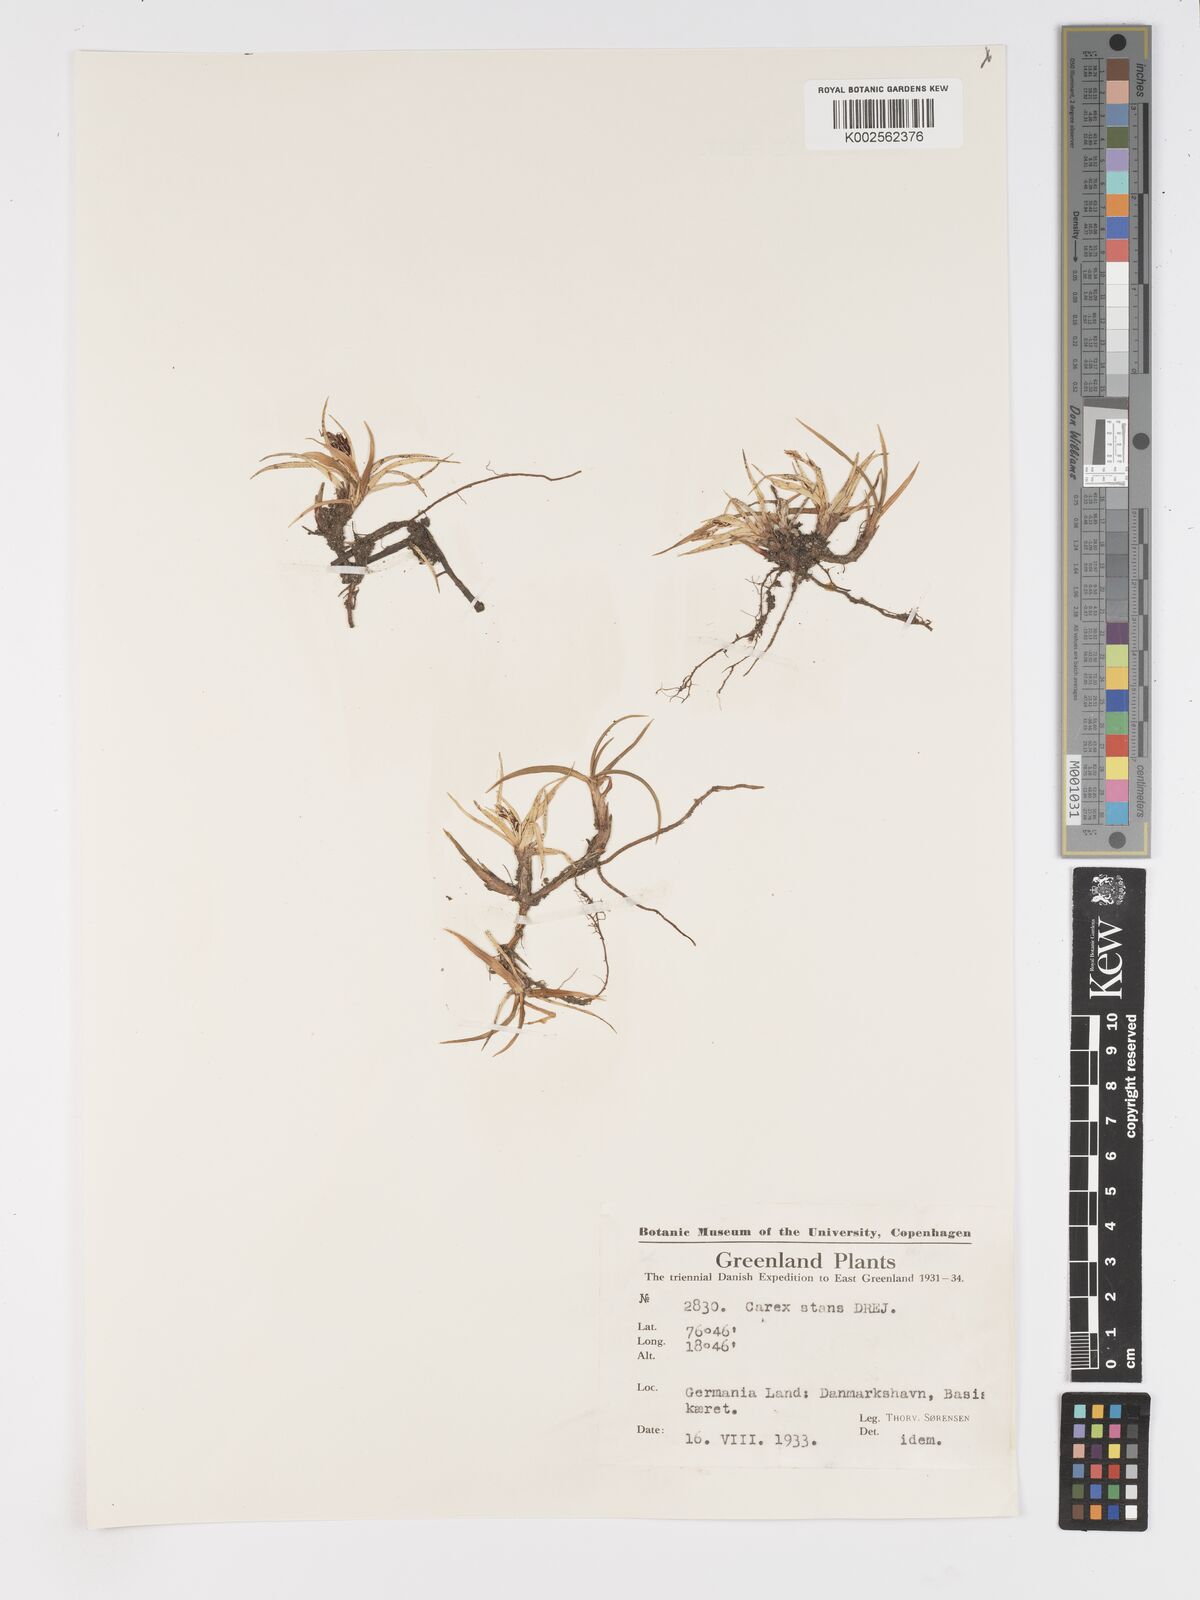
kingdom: Plantae
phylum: Tracheophyta
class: Liliopsida
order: Poales
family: Cyperaceae
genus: Carex
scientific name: Carex aquatilis
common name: Water sedge
